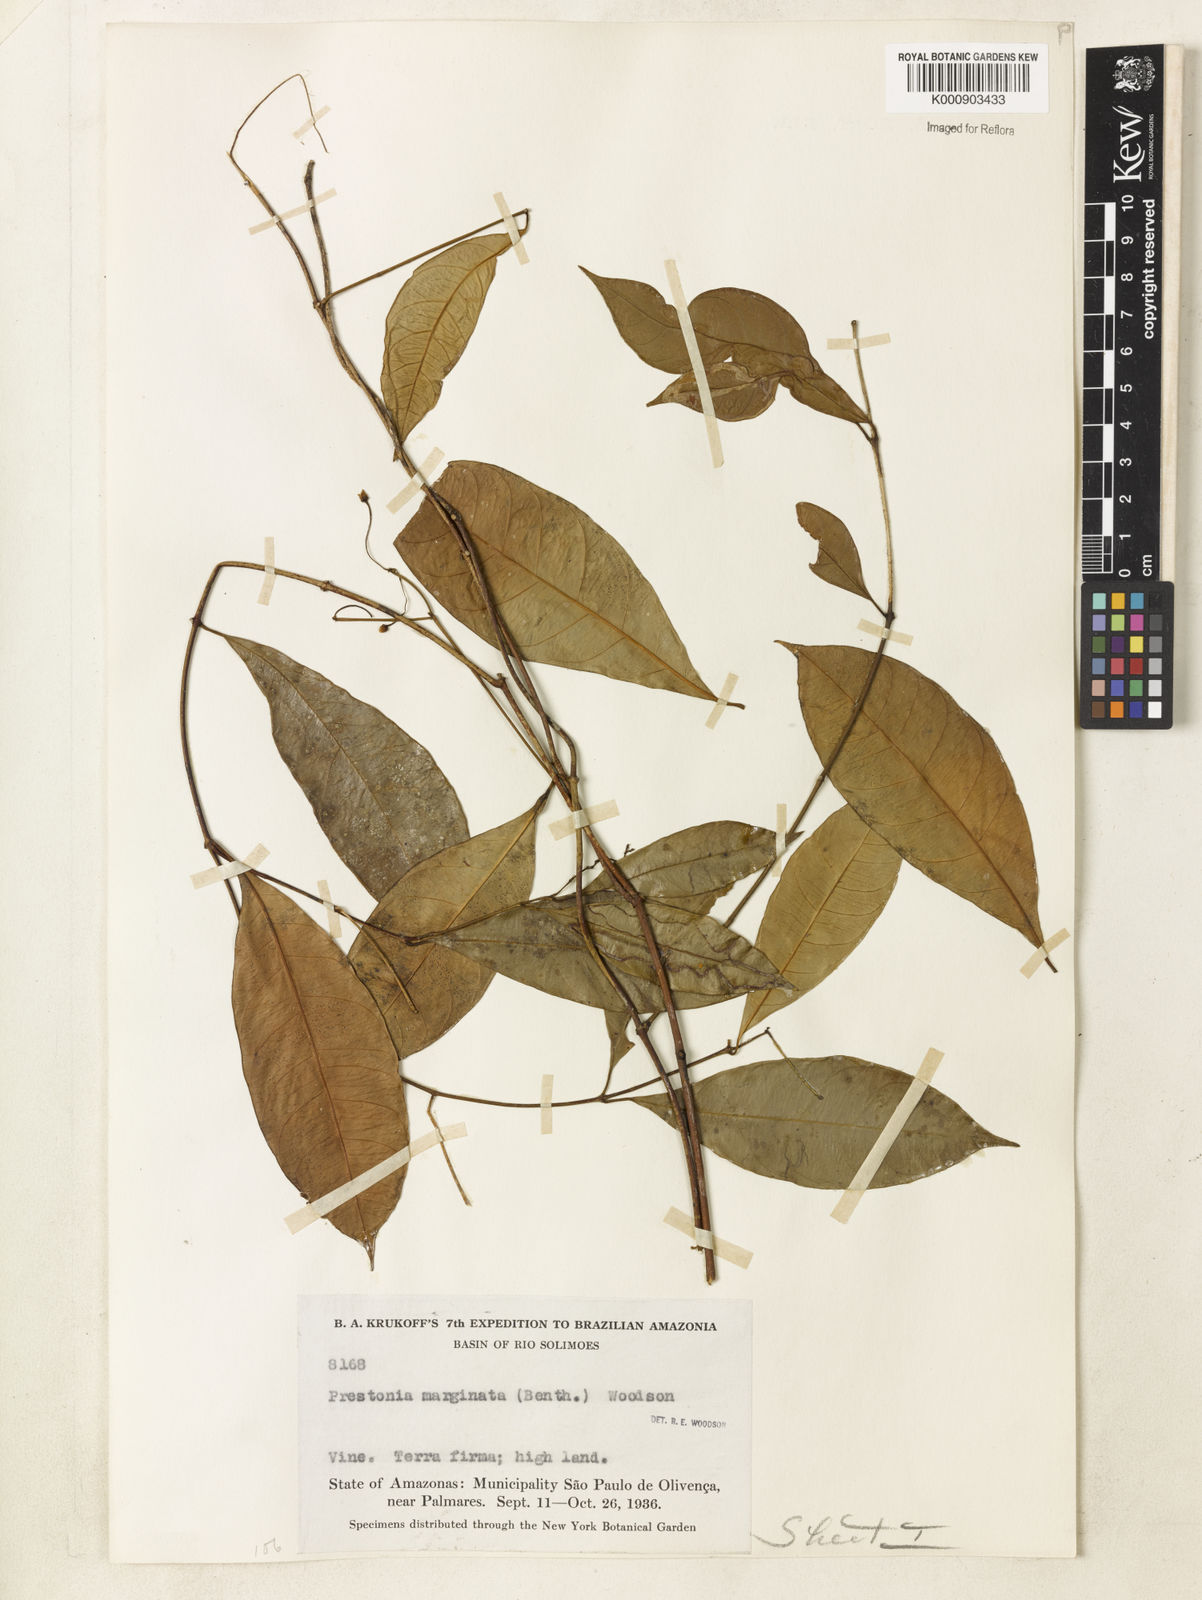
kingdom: Plantae
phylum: Tracheophyta
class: Magnoliopsida
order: Gentianales
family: Apocynaceae
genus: Prestonia
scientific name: Prestonia cayennensis
